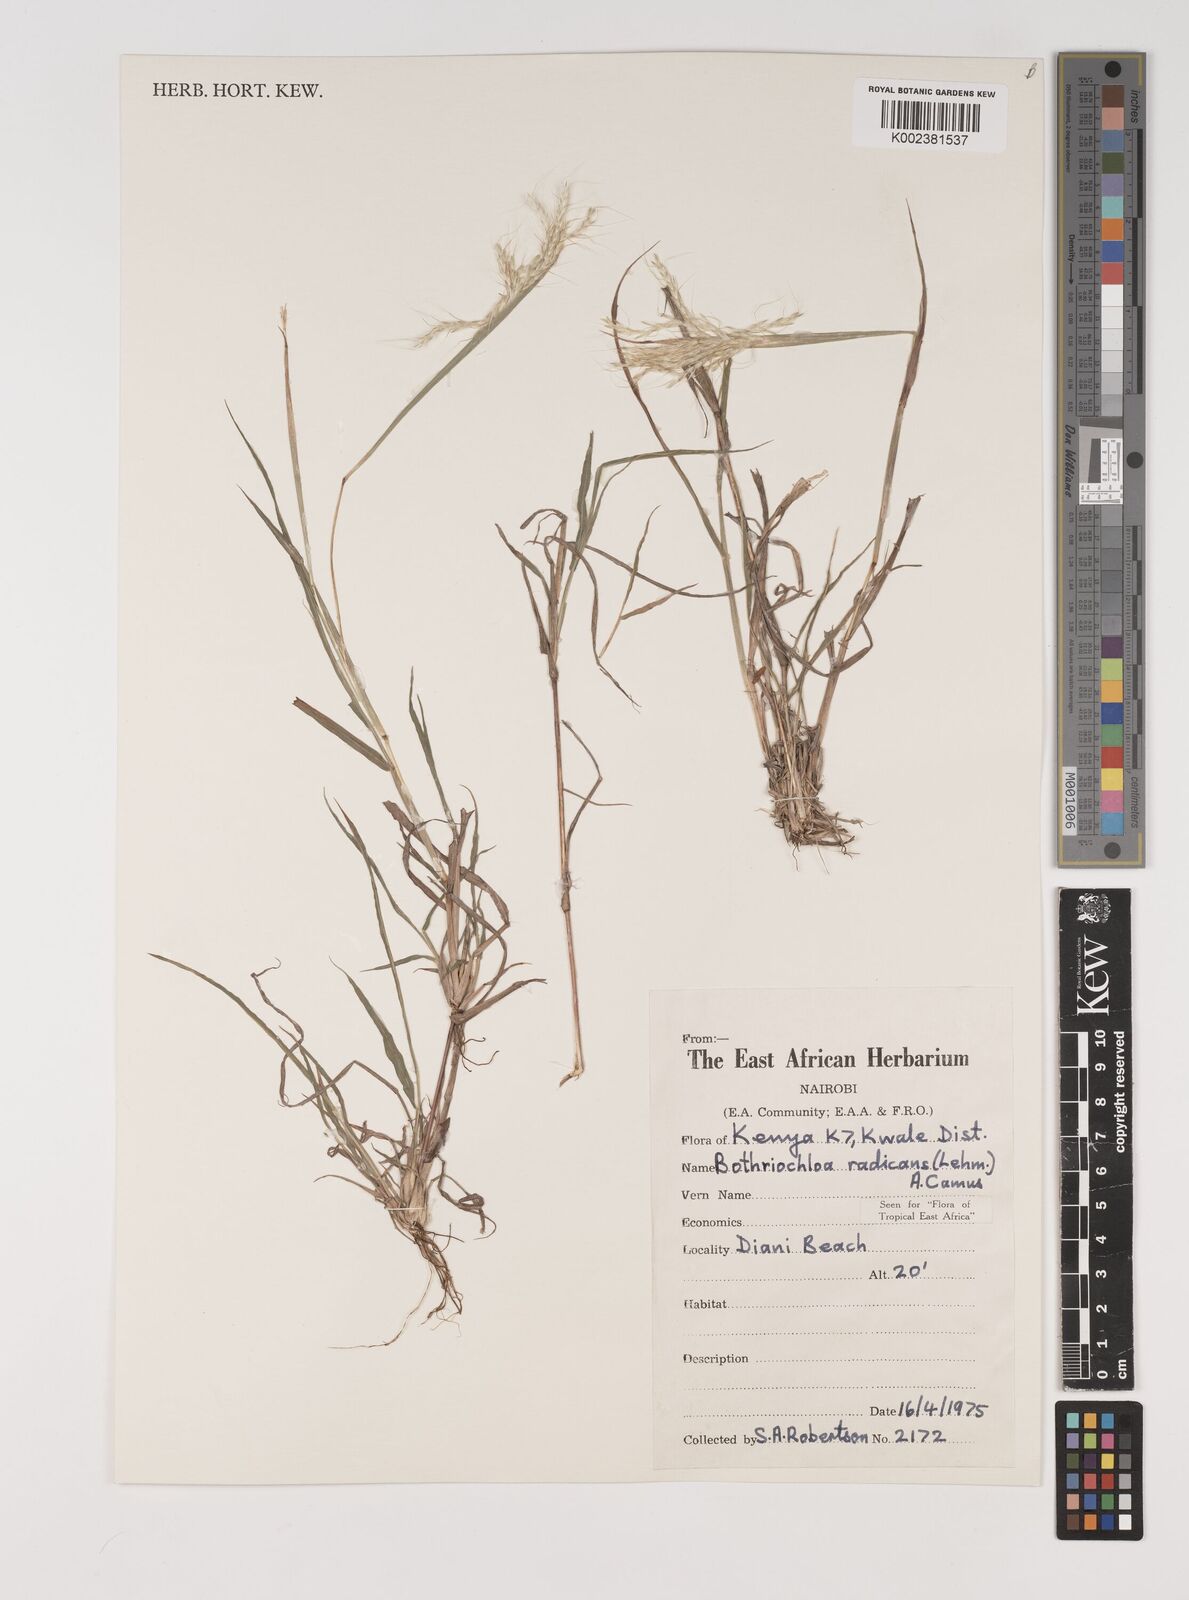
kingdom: Plantae
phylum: Tracheophyta
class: Liliopsida
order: Poales
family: Poaceae
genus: Bothriochloa
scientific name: Bothriochloa radicans
